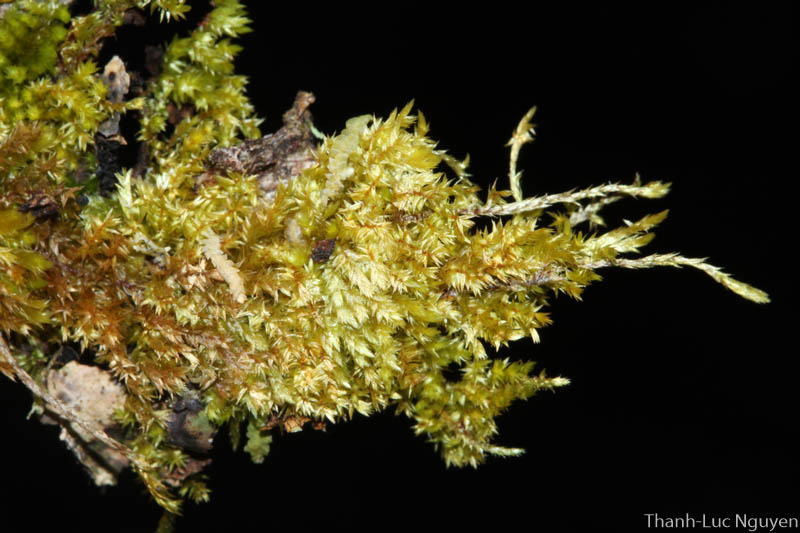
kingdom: Plantae
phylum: Bryophyta
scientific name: Bryophyta
